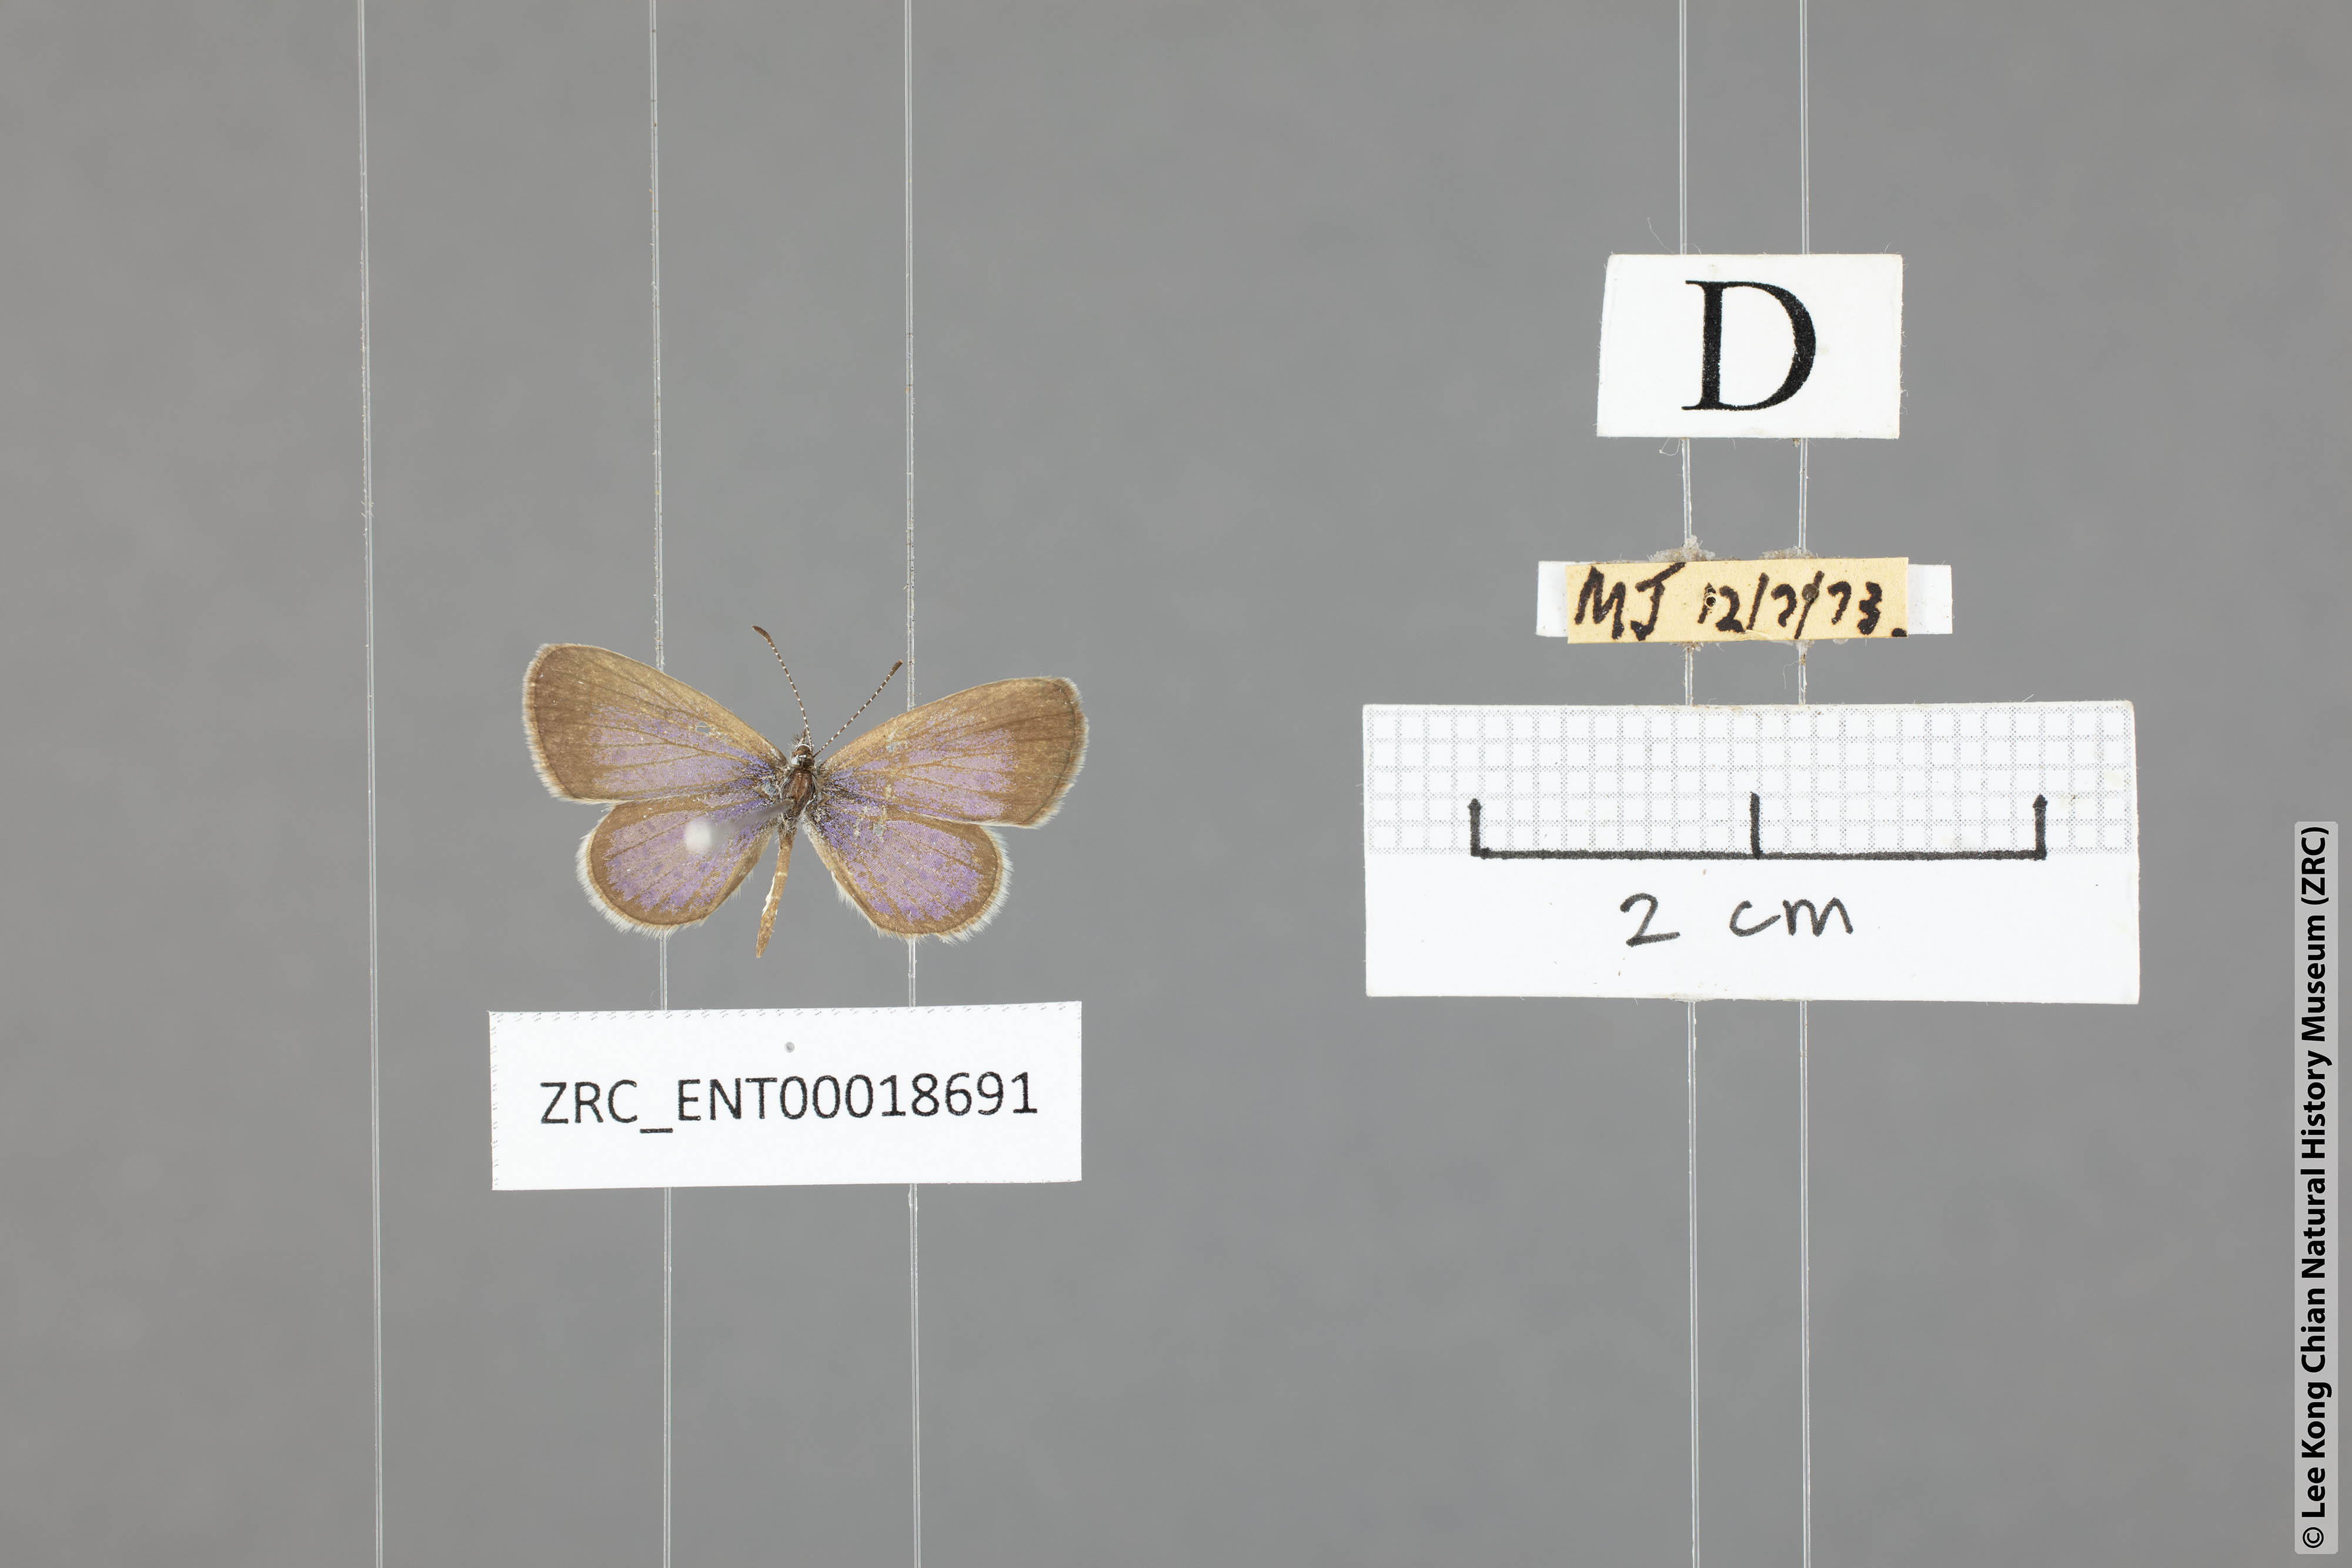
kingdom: Animalia
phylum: Arthropoda
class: Insecta
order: Lepidoptera
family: Lycaenidae
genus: Zizula
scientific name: Zizula hylax
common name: Gaika blue
